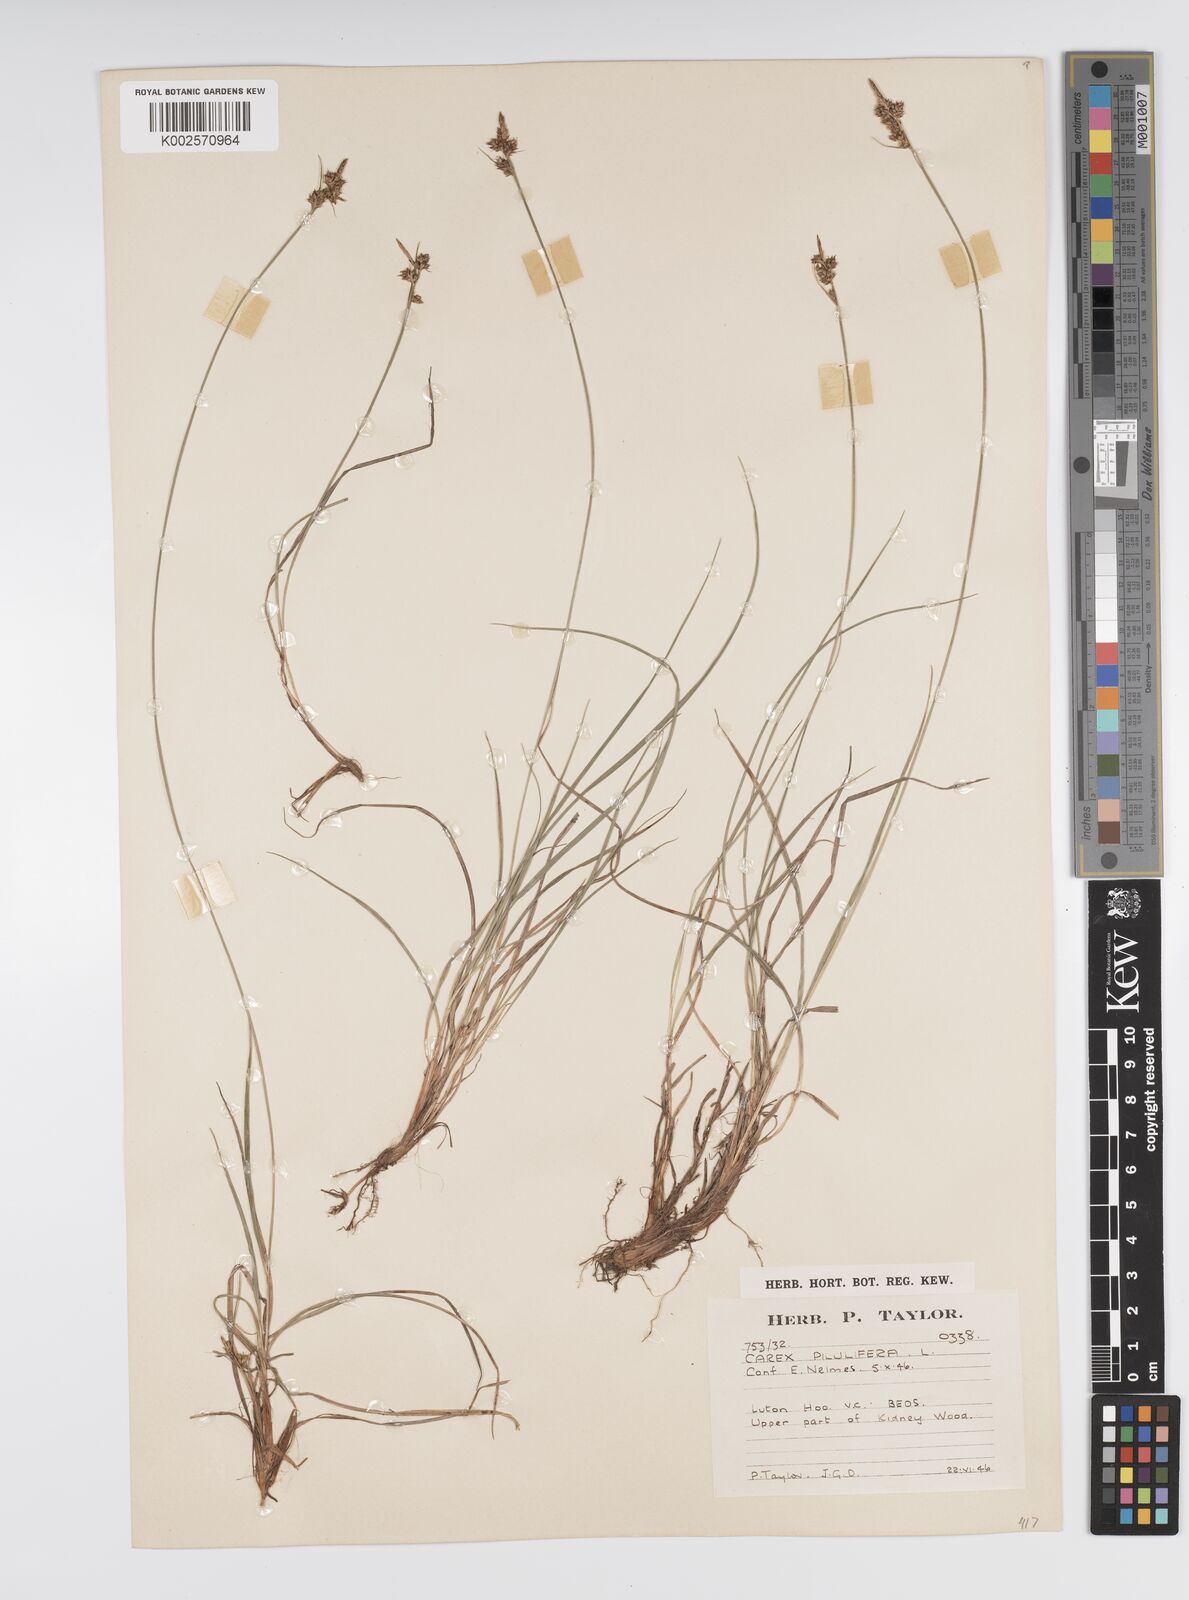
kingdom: Plantae
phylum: Tracheophyta
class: Liliopsida
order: Poales
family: Cyperaceae
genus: Carex
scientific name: Carex pilulifera
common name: Pill sedge
